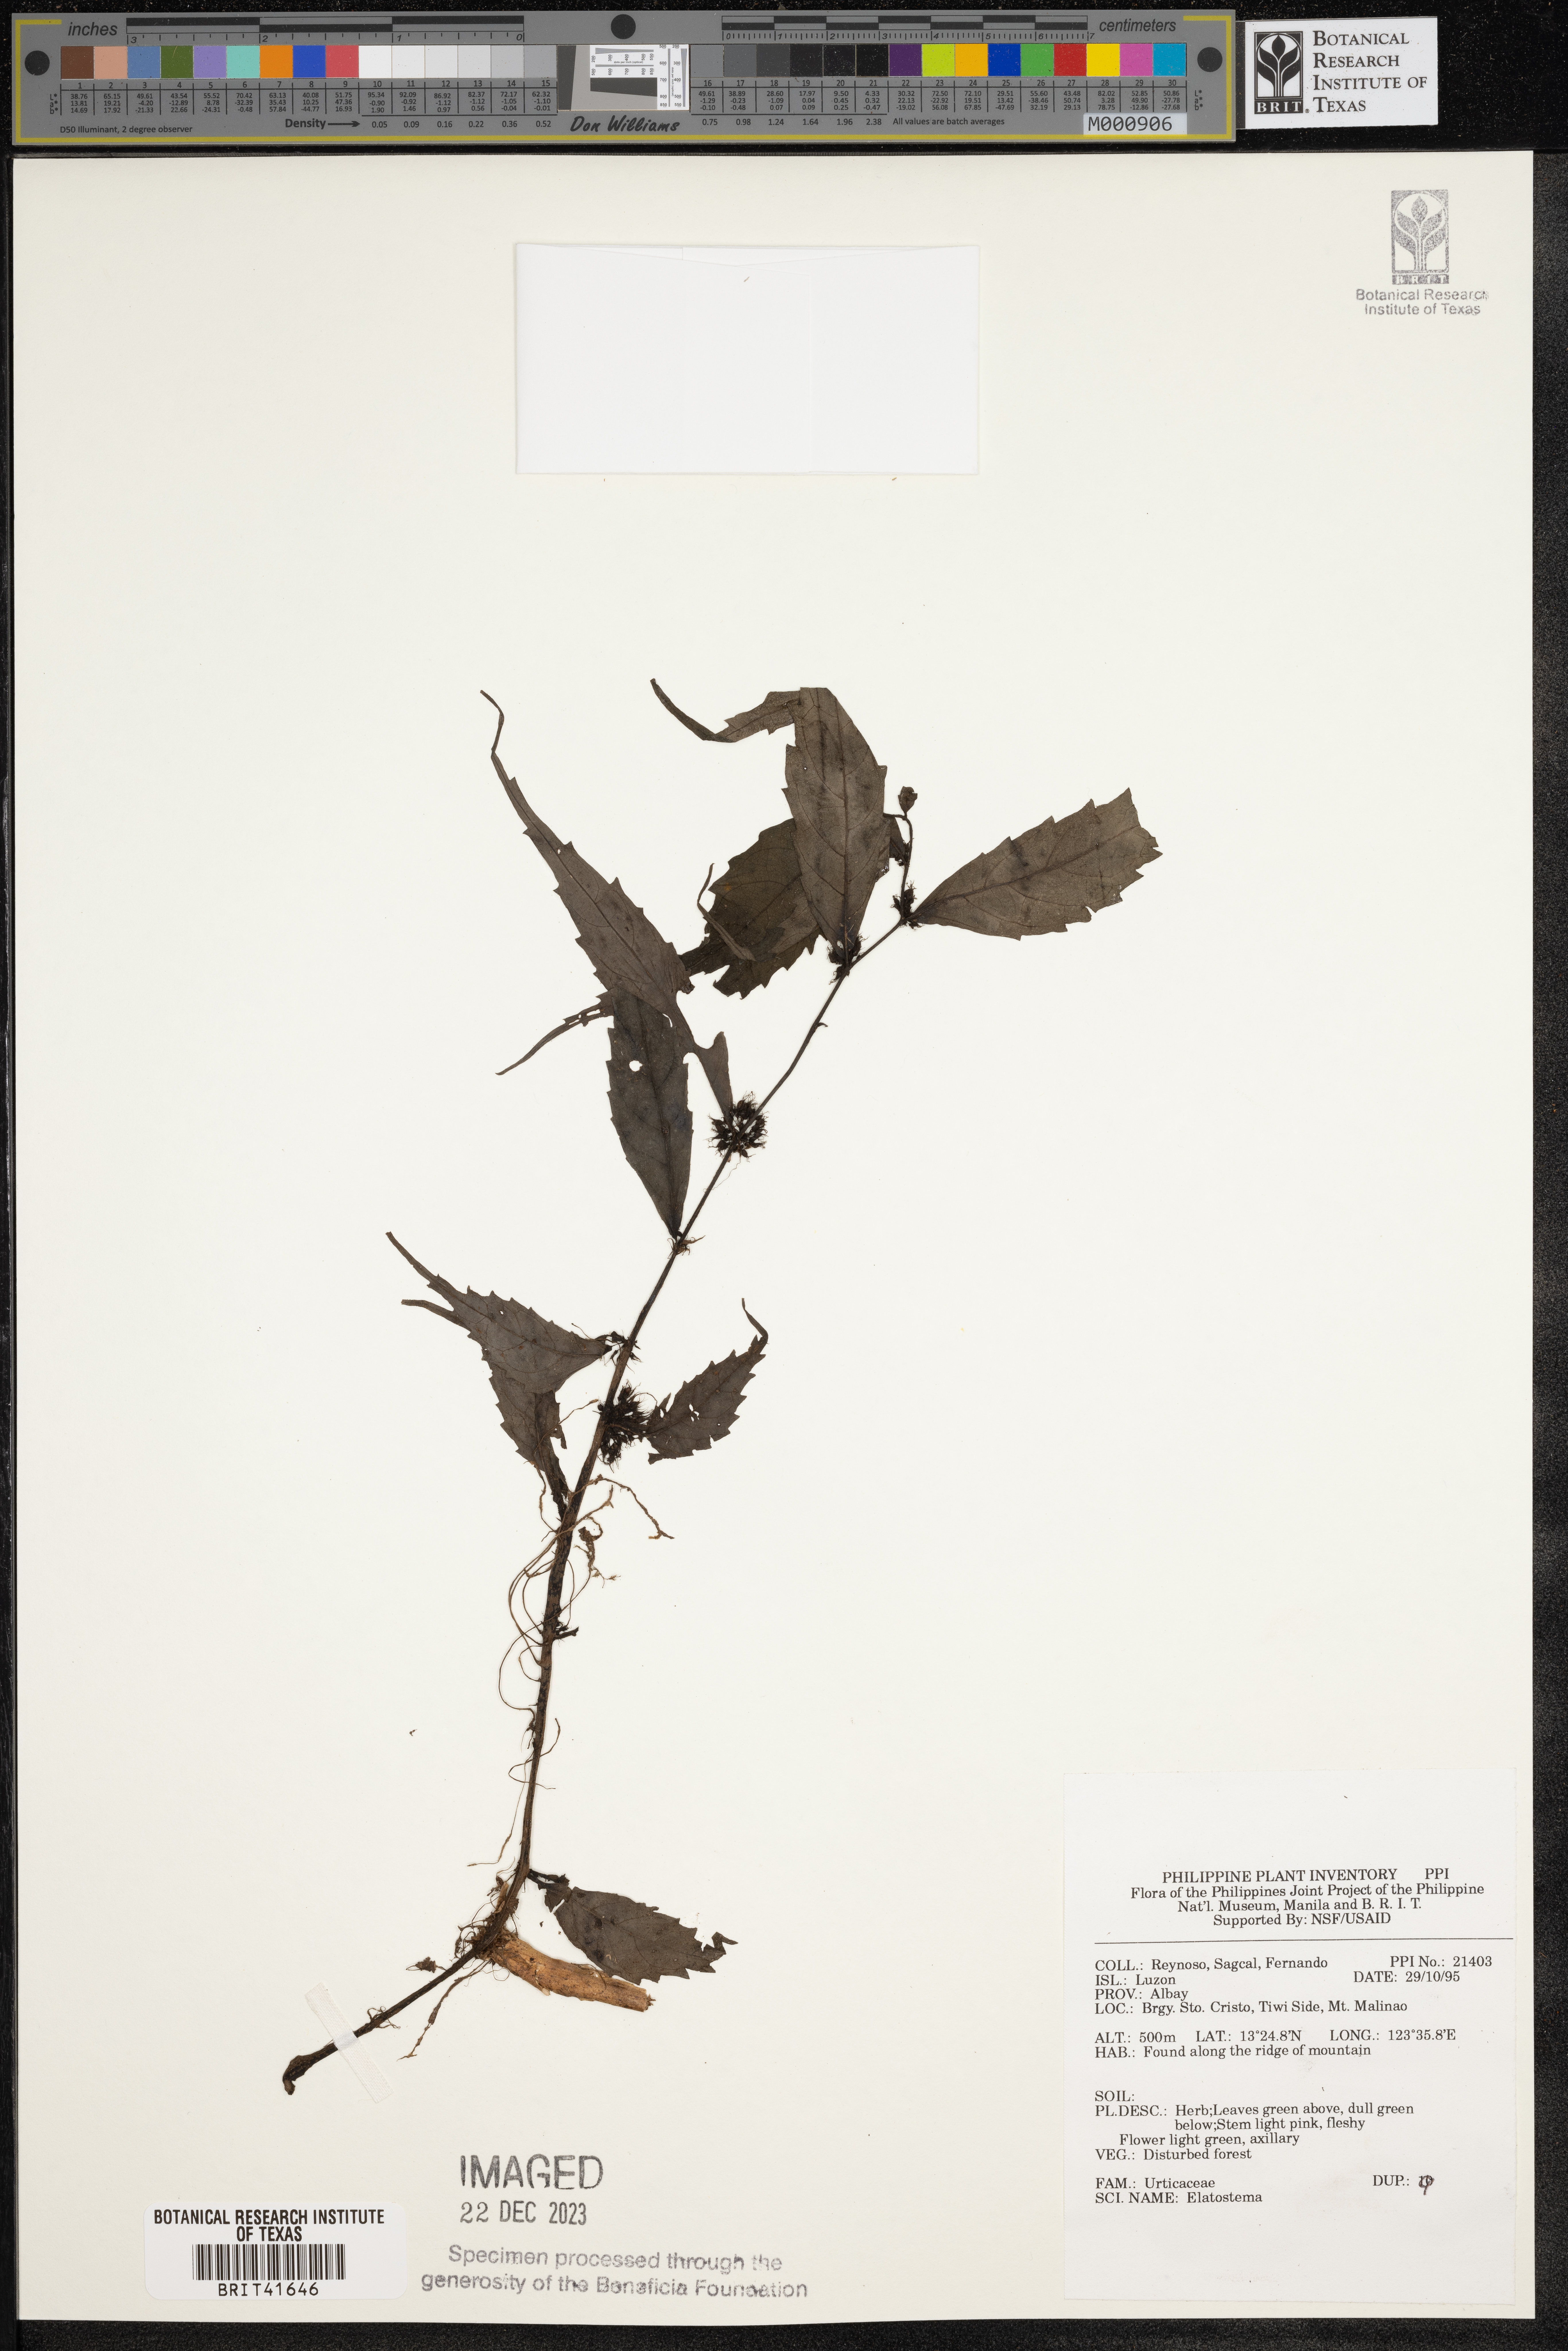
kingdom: Plantae
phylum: Tracheophyta
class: Magnoliopsida
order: Rosales
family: Urticaceae
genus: Elatostema
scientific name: Elatostema
